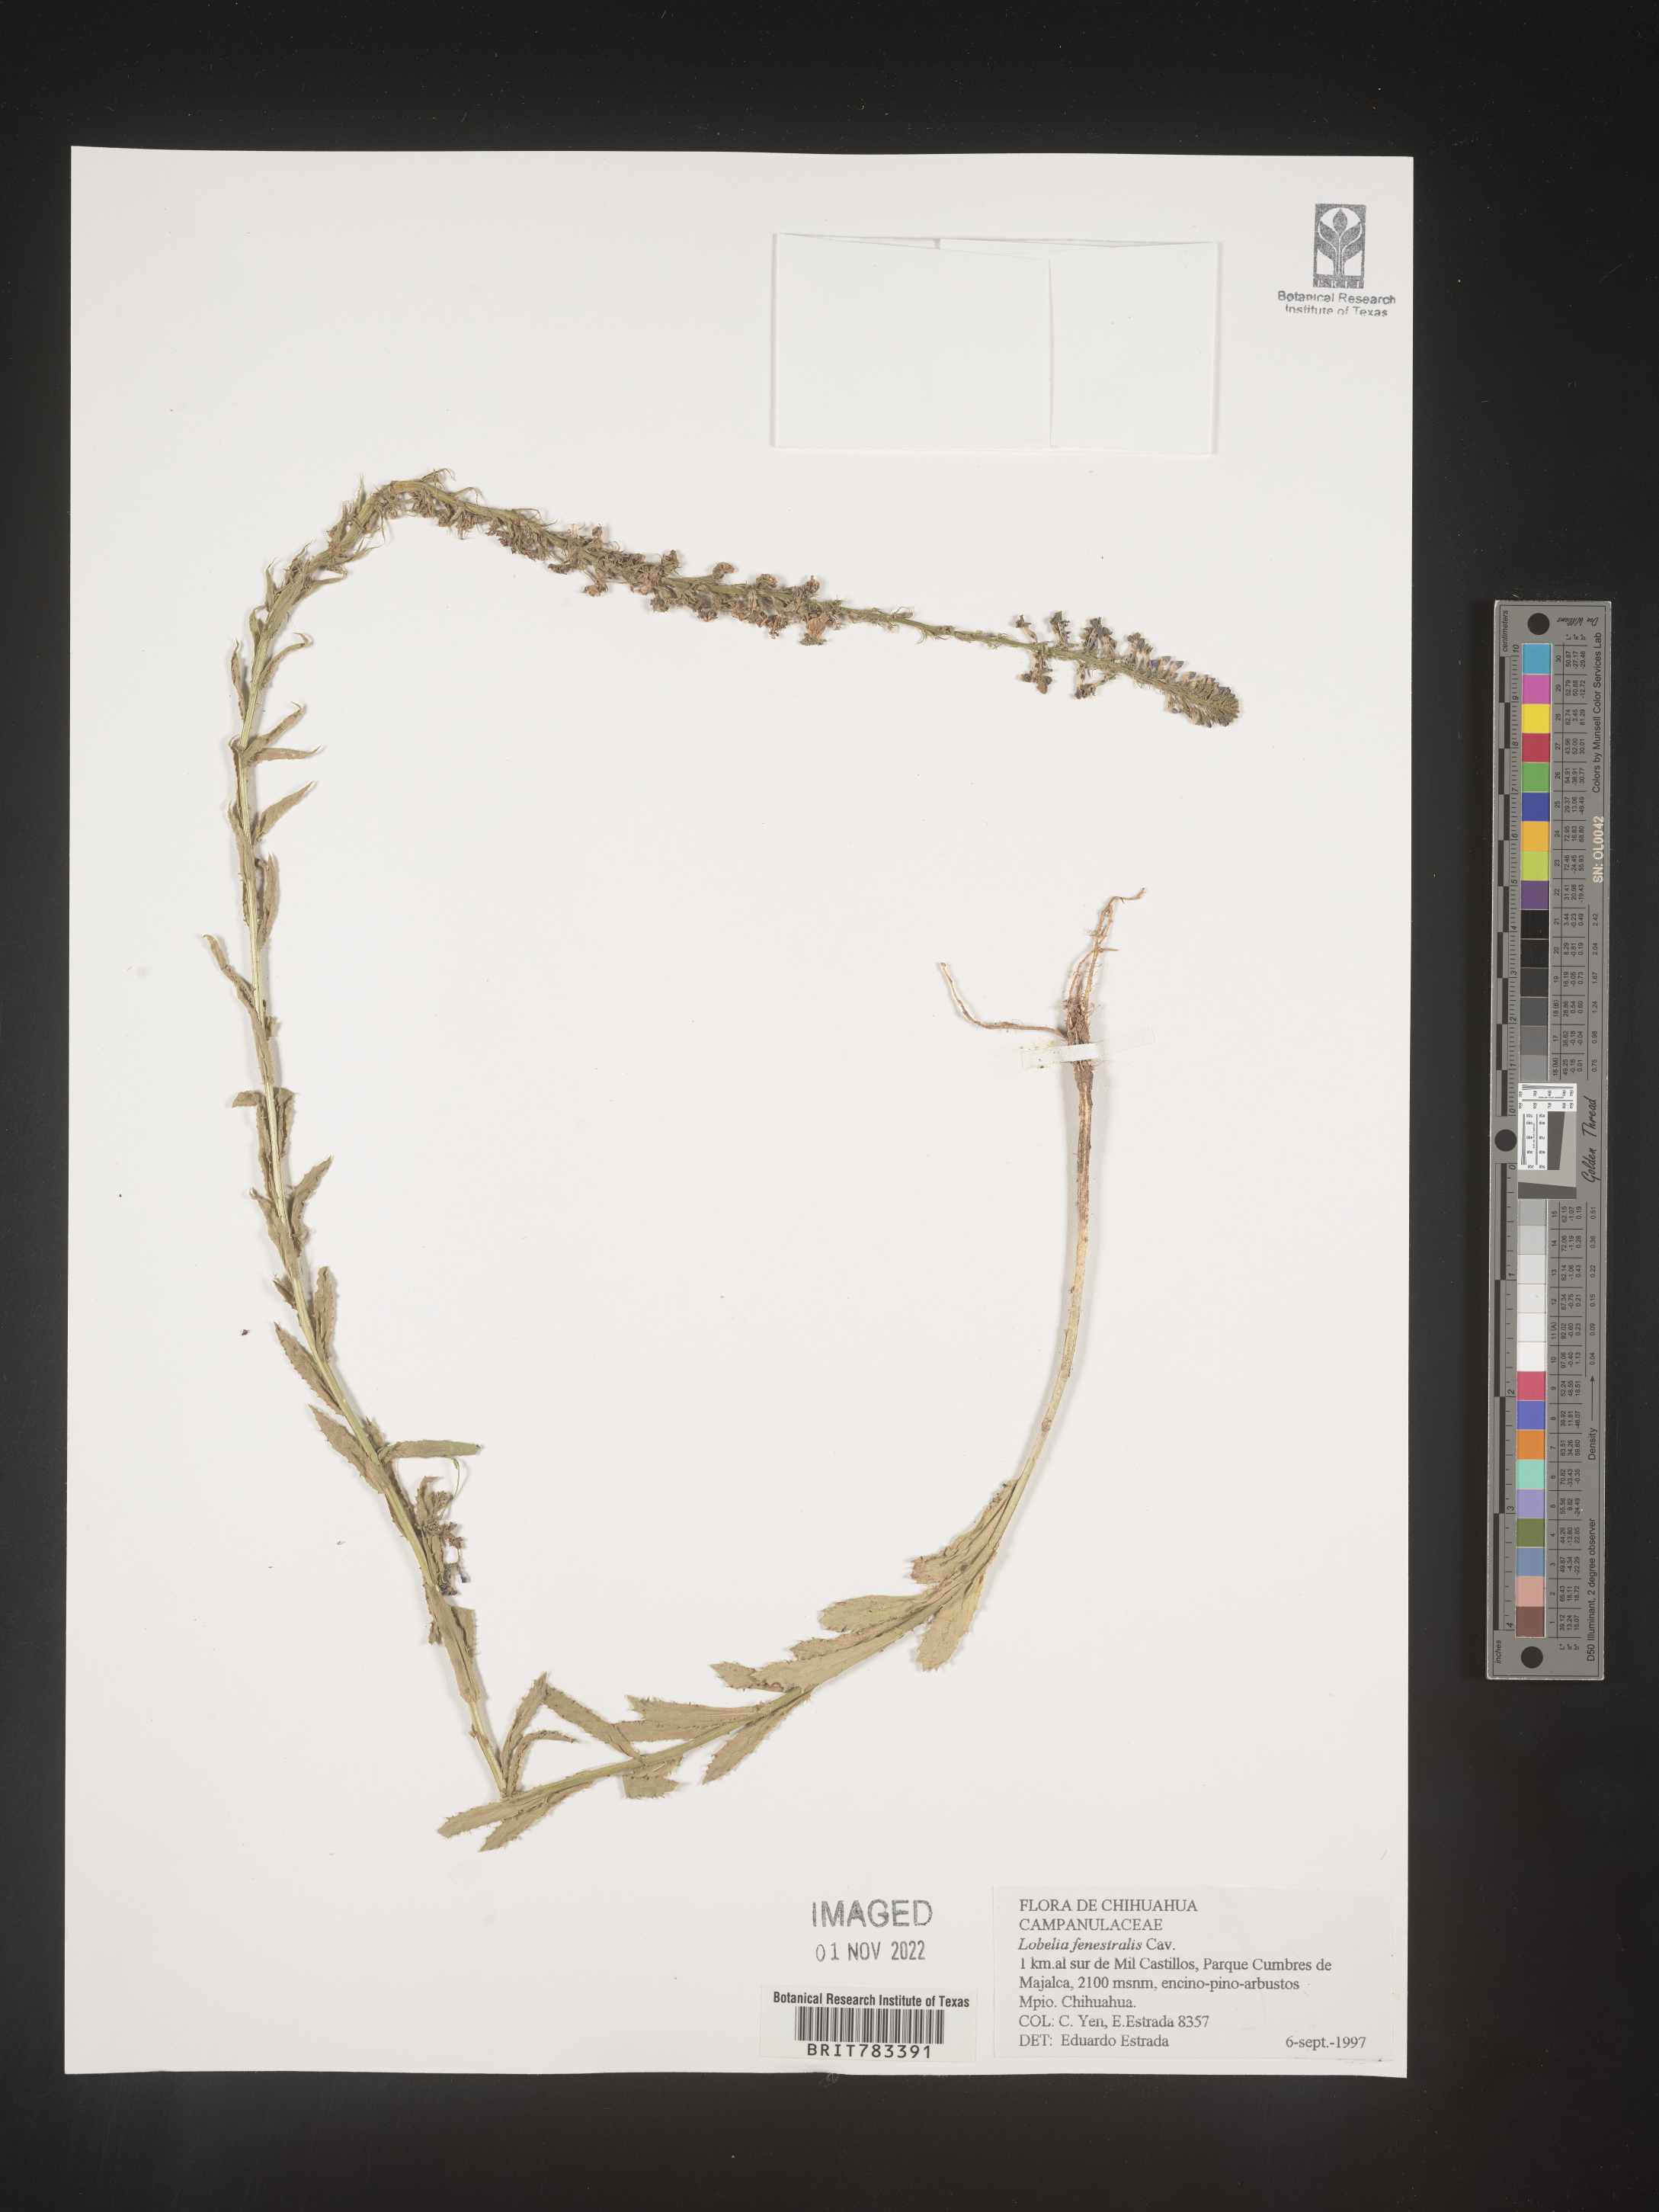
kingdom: Plantae
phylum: Tracheophyta
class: Magnoliopsida
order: Asterales
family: Campanulaceae
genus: Lobelia
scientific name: Lobelia
